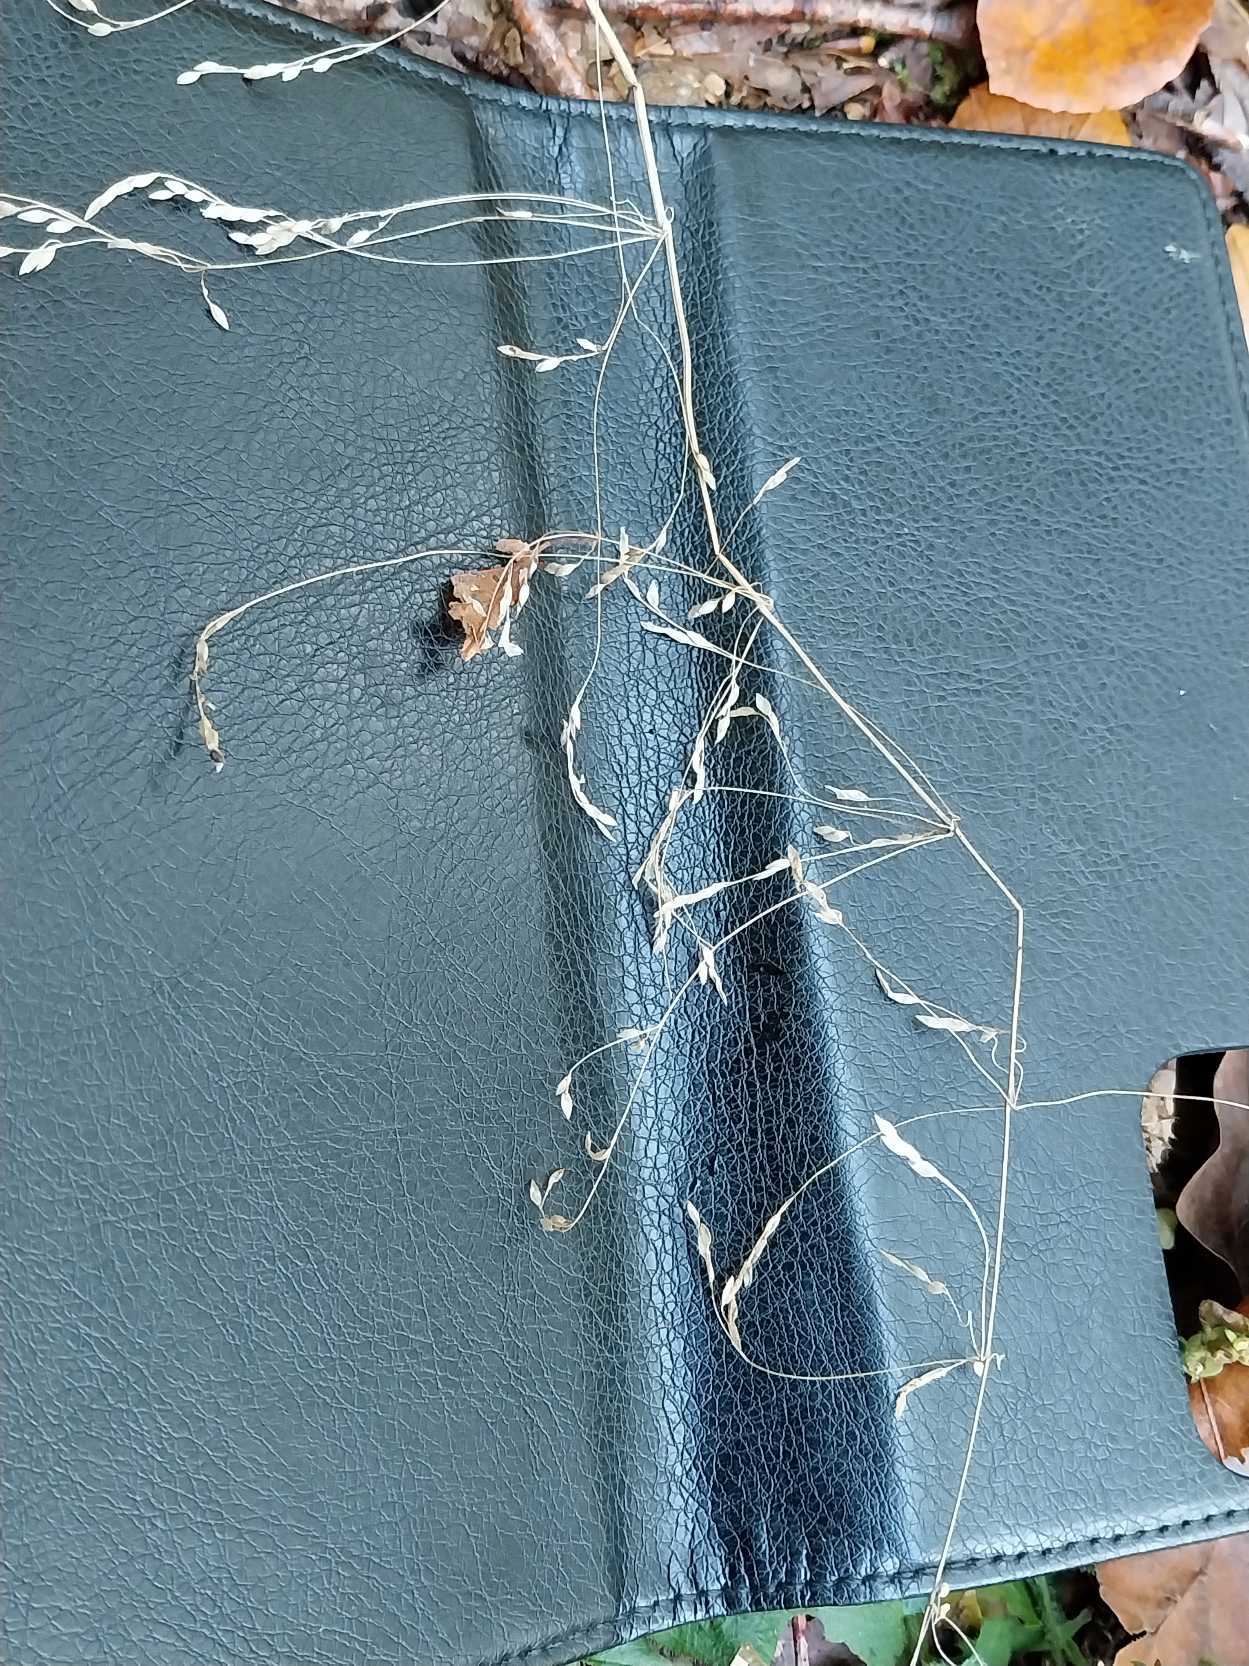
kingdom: Plantae
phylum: Tracheophyta
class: Liliopsida
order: Poales
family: Poaceae
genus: Milium
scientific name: Milium effusum
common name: Miliegræs
